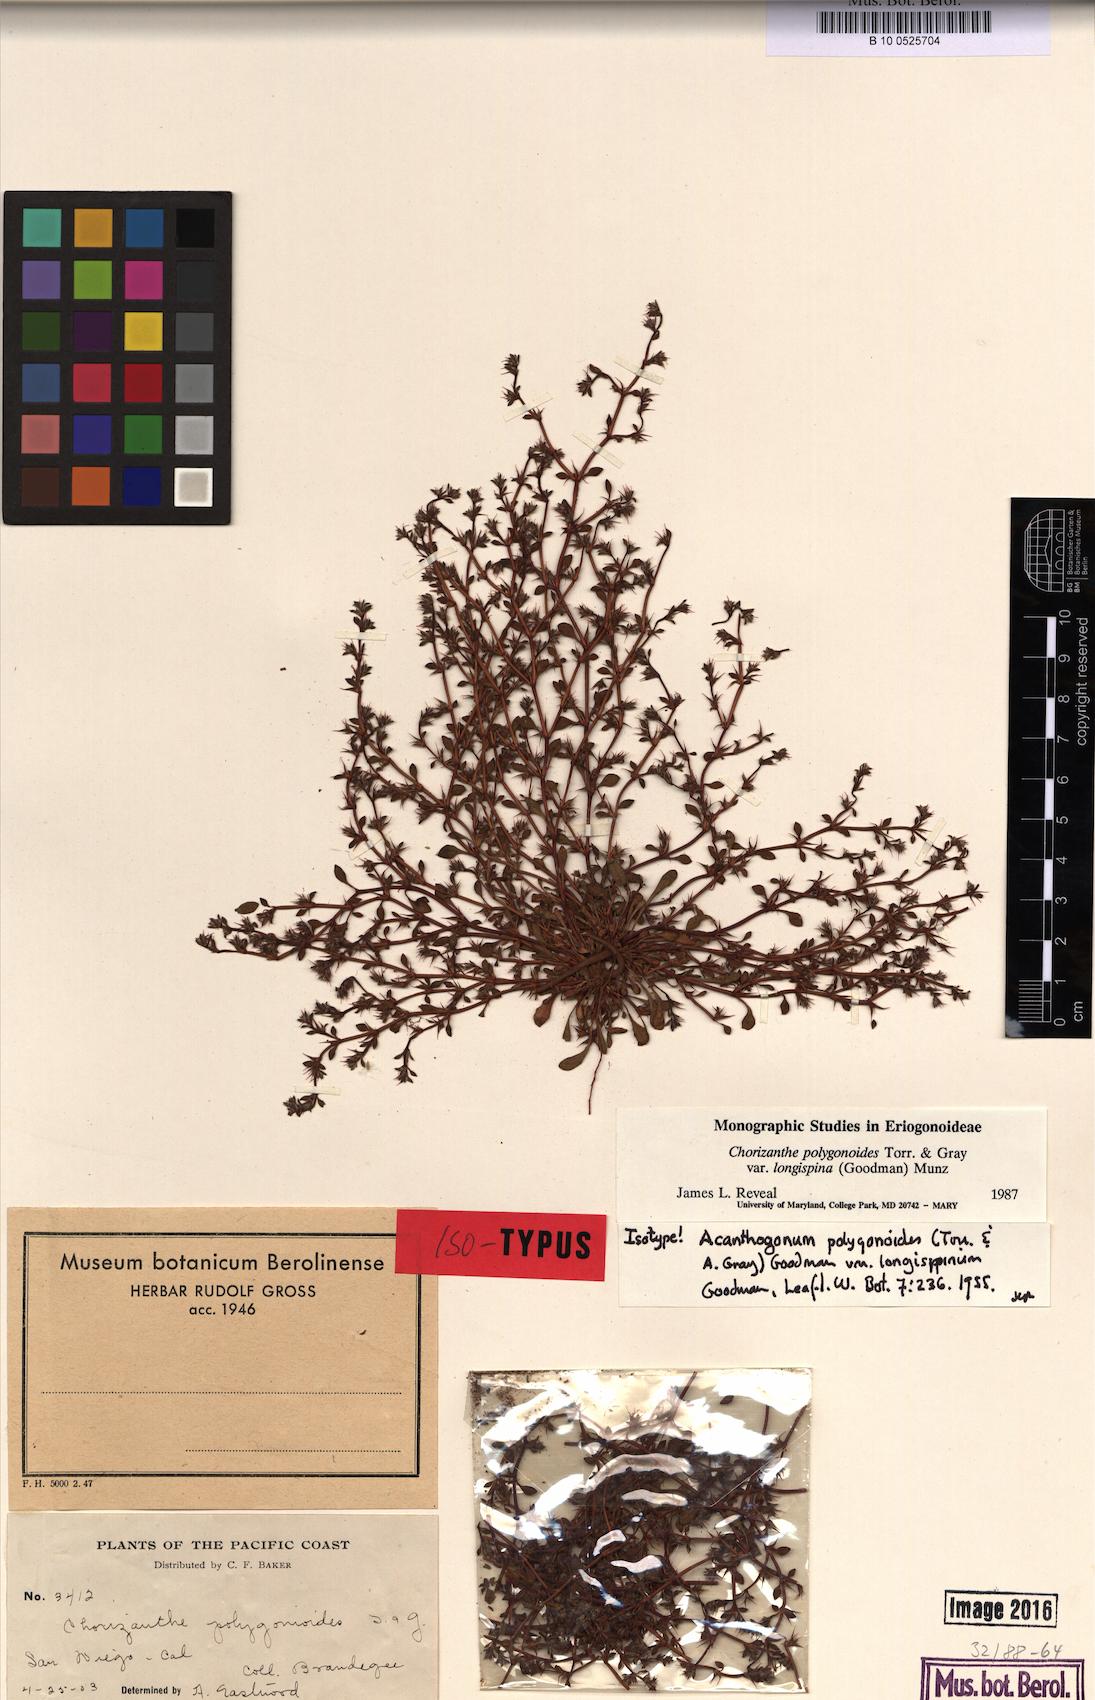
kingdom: Plantae
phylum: Tracheophyta
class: Magnoliopsida
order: Caryophyllales
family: Polygonaceae
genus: Chorizanthe
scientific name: Chorizanthe polygonoides
